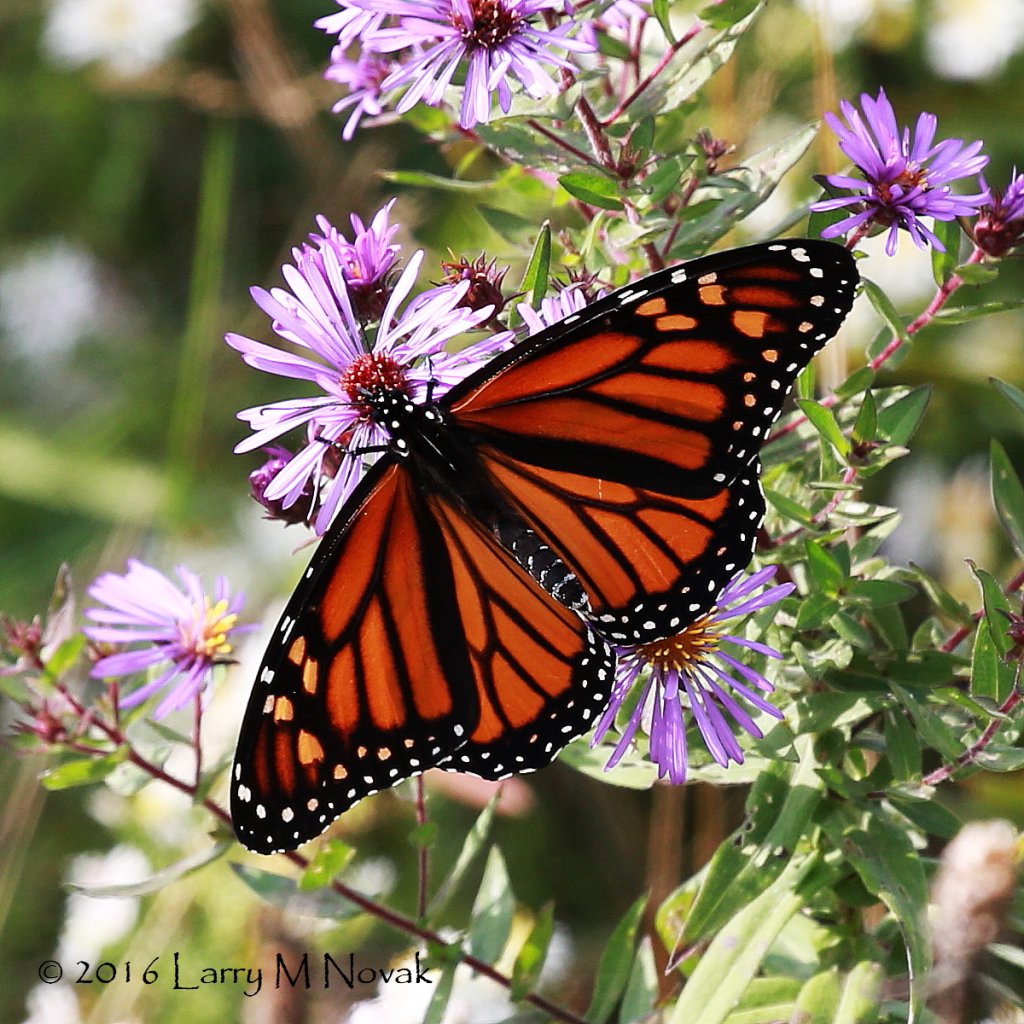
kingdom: Animalia
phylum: Arthropoda
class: Insecta
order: Lepidoptera
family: Nymphalidae
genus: Danaus
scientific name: Danaus plexippus
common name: Monarch
